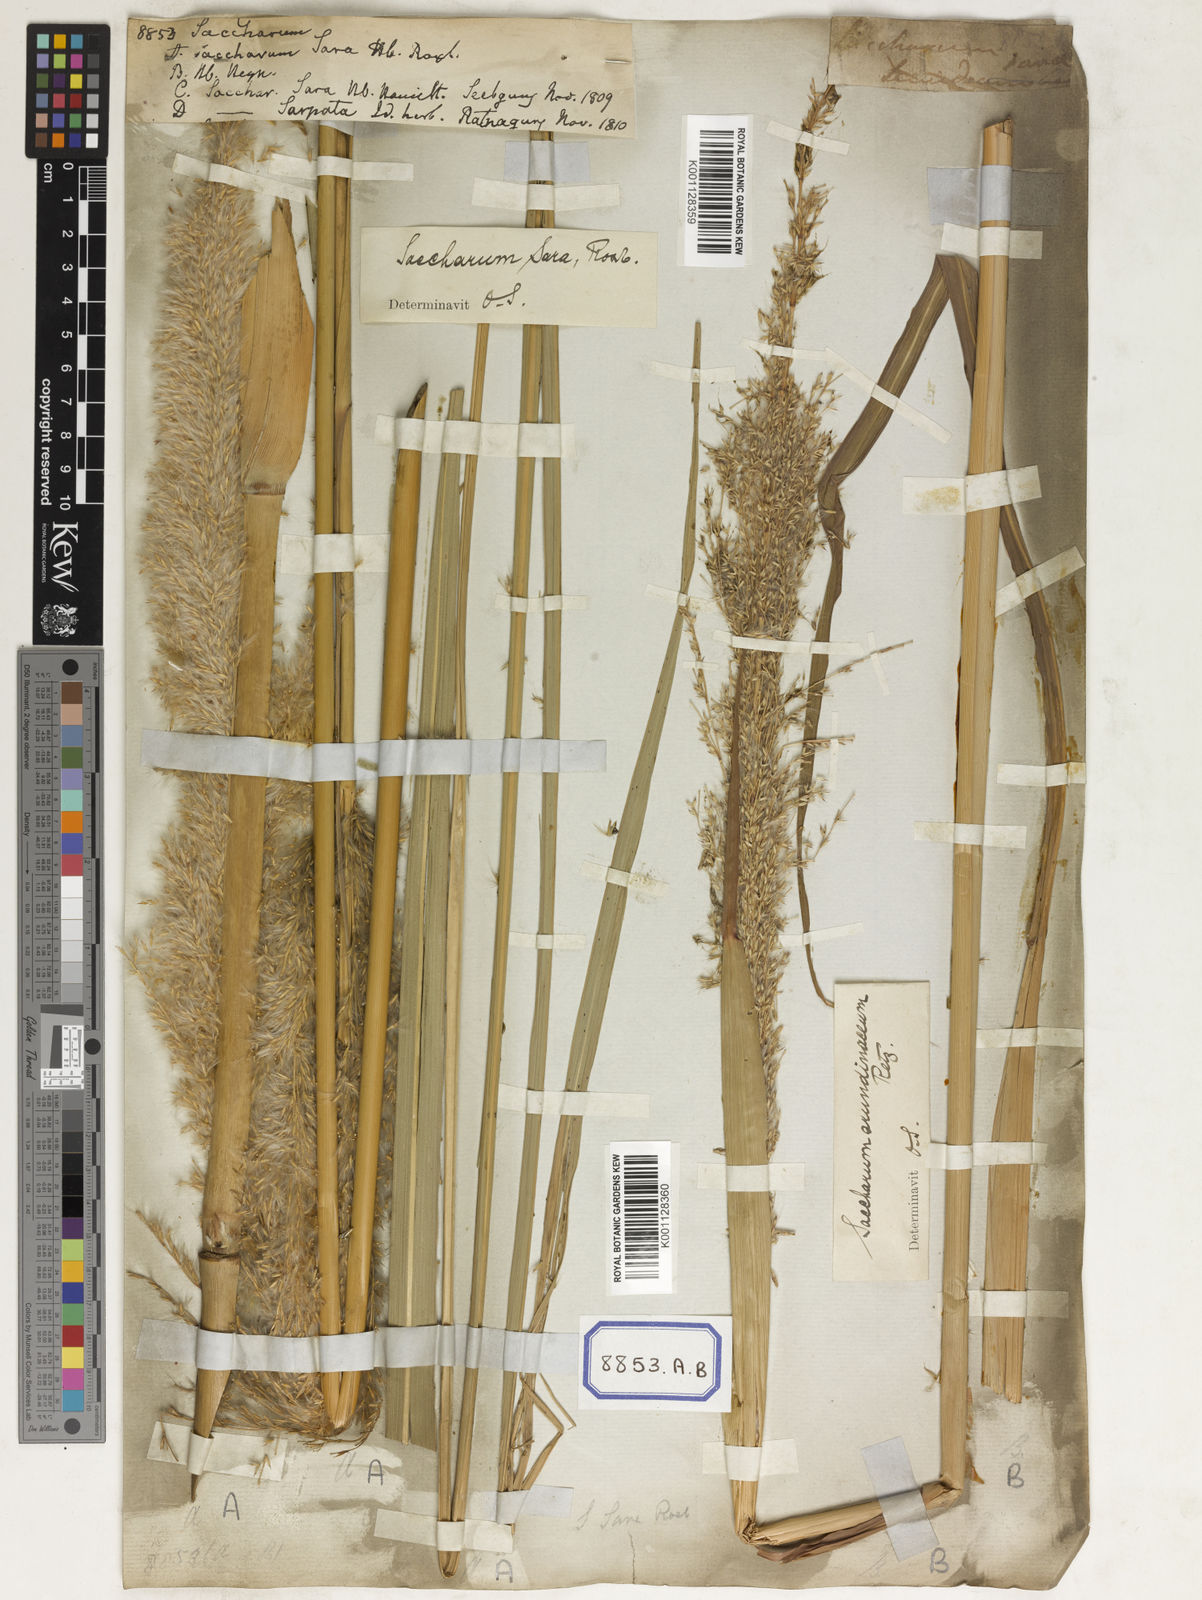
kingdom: Plantae
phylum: Tracheophyta
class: Liliopsida
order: Poales
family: Poaceae
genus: Saccharum
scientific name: Saccharum
